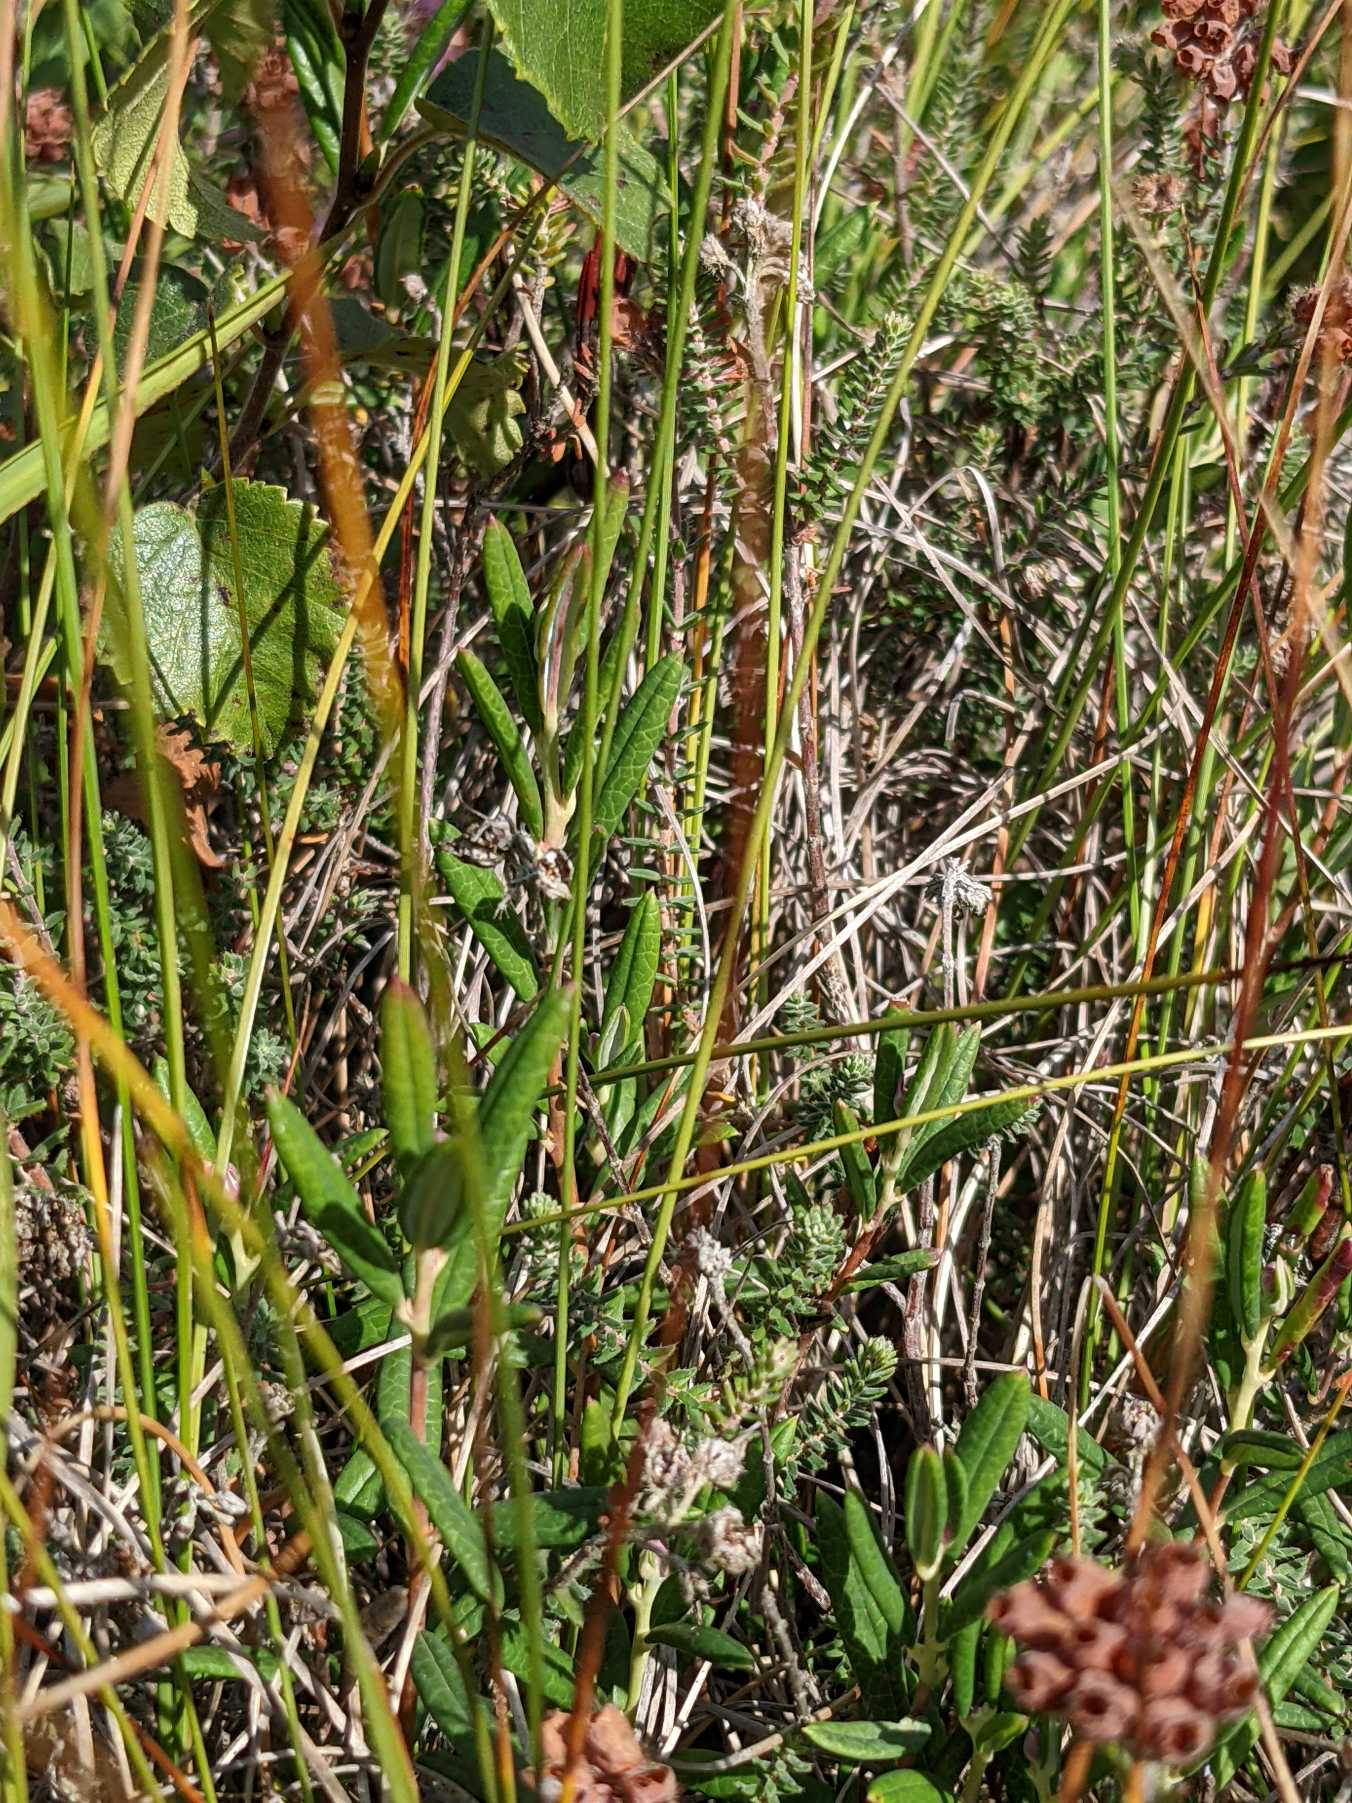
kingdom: Plantae
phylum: Tracheophyta
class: Magnoliopsida
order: Ericales
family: Ericaceae
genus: Andromeda
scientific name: Andromeda polifolia
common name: Rosmarinlyng
